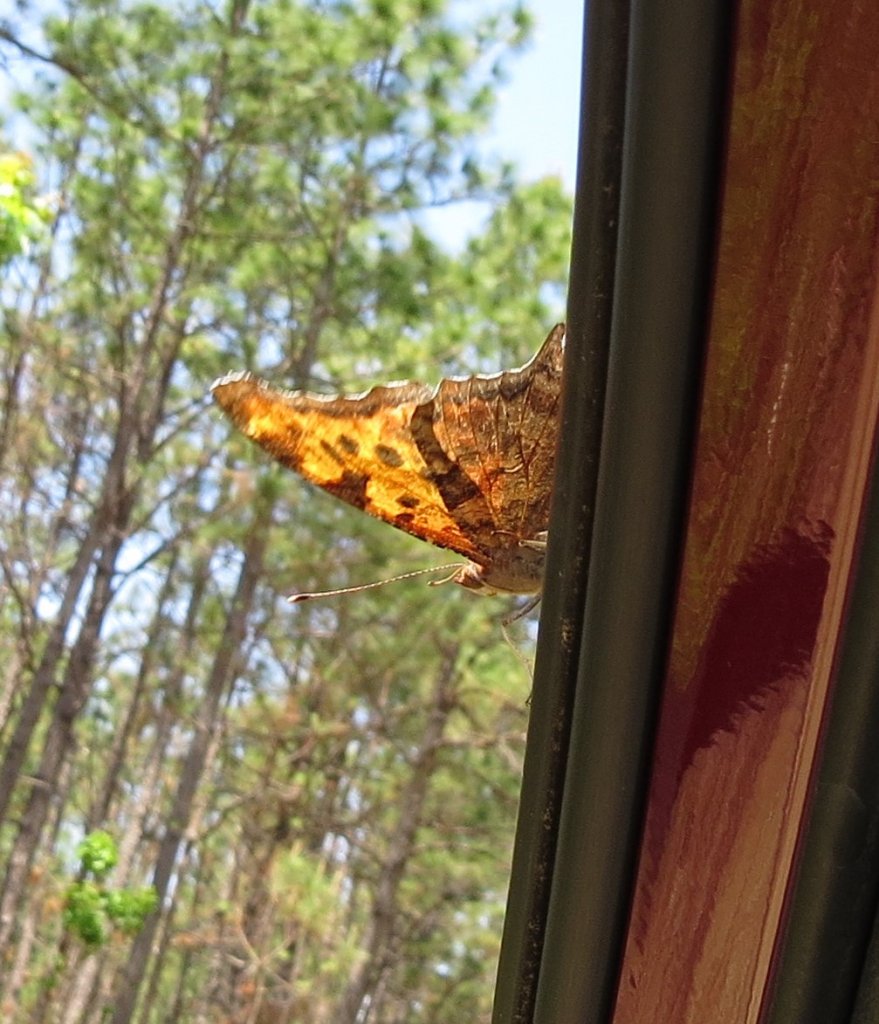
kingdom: Animalia
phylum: Arthropoda
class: Insecta
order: Lepidoptera
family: Nymphalidae
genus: Polygonia
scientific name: Polygonia interrogationis
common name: Question Mark
